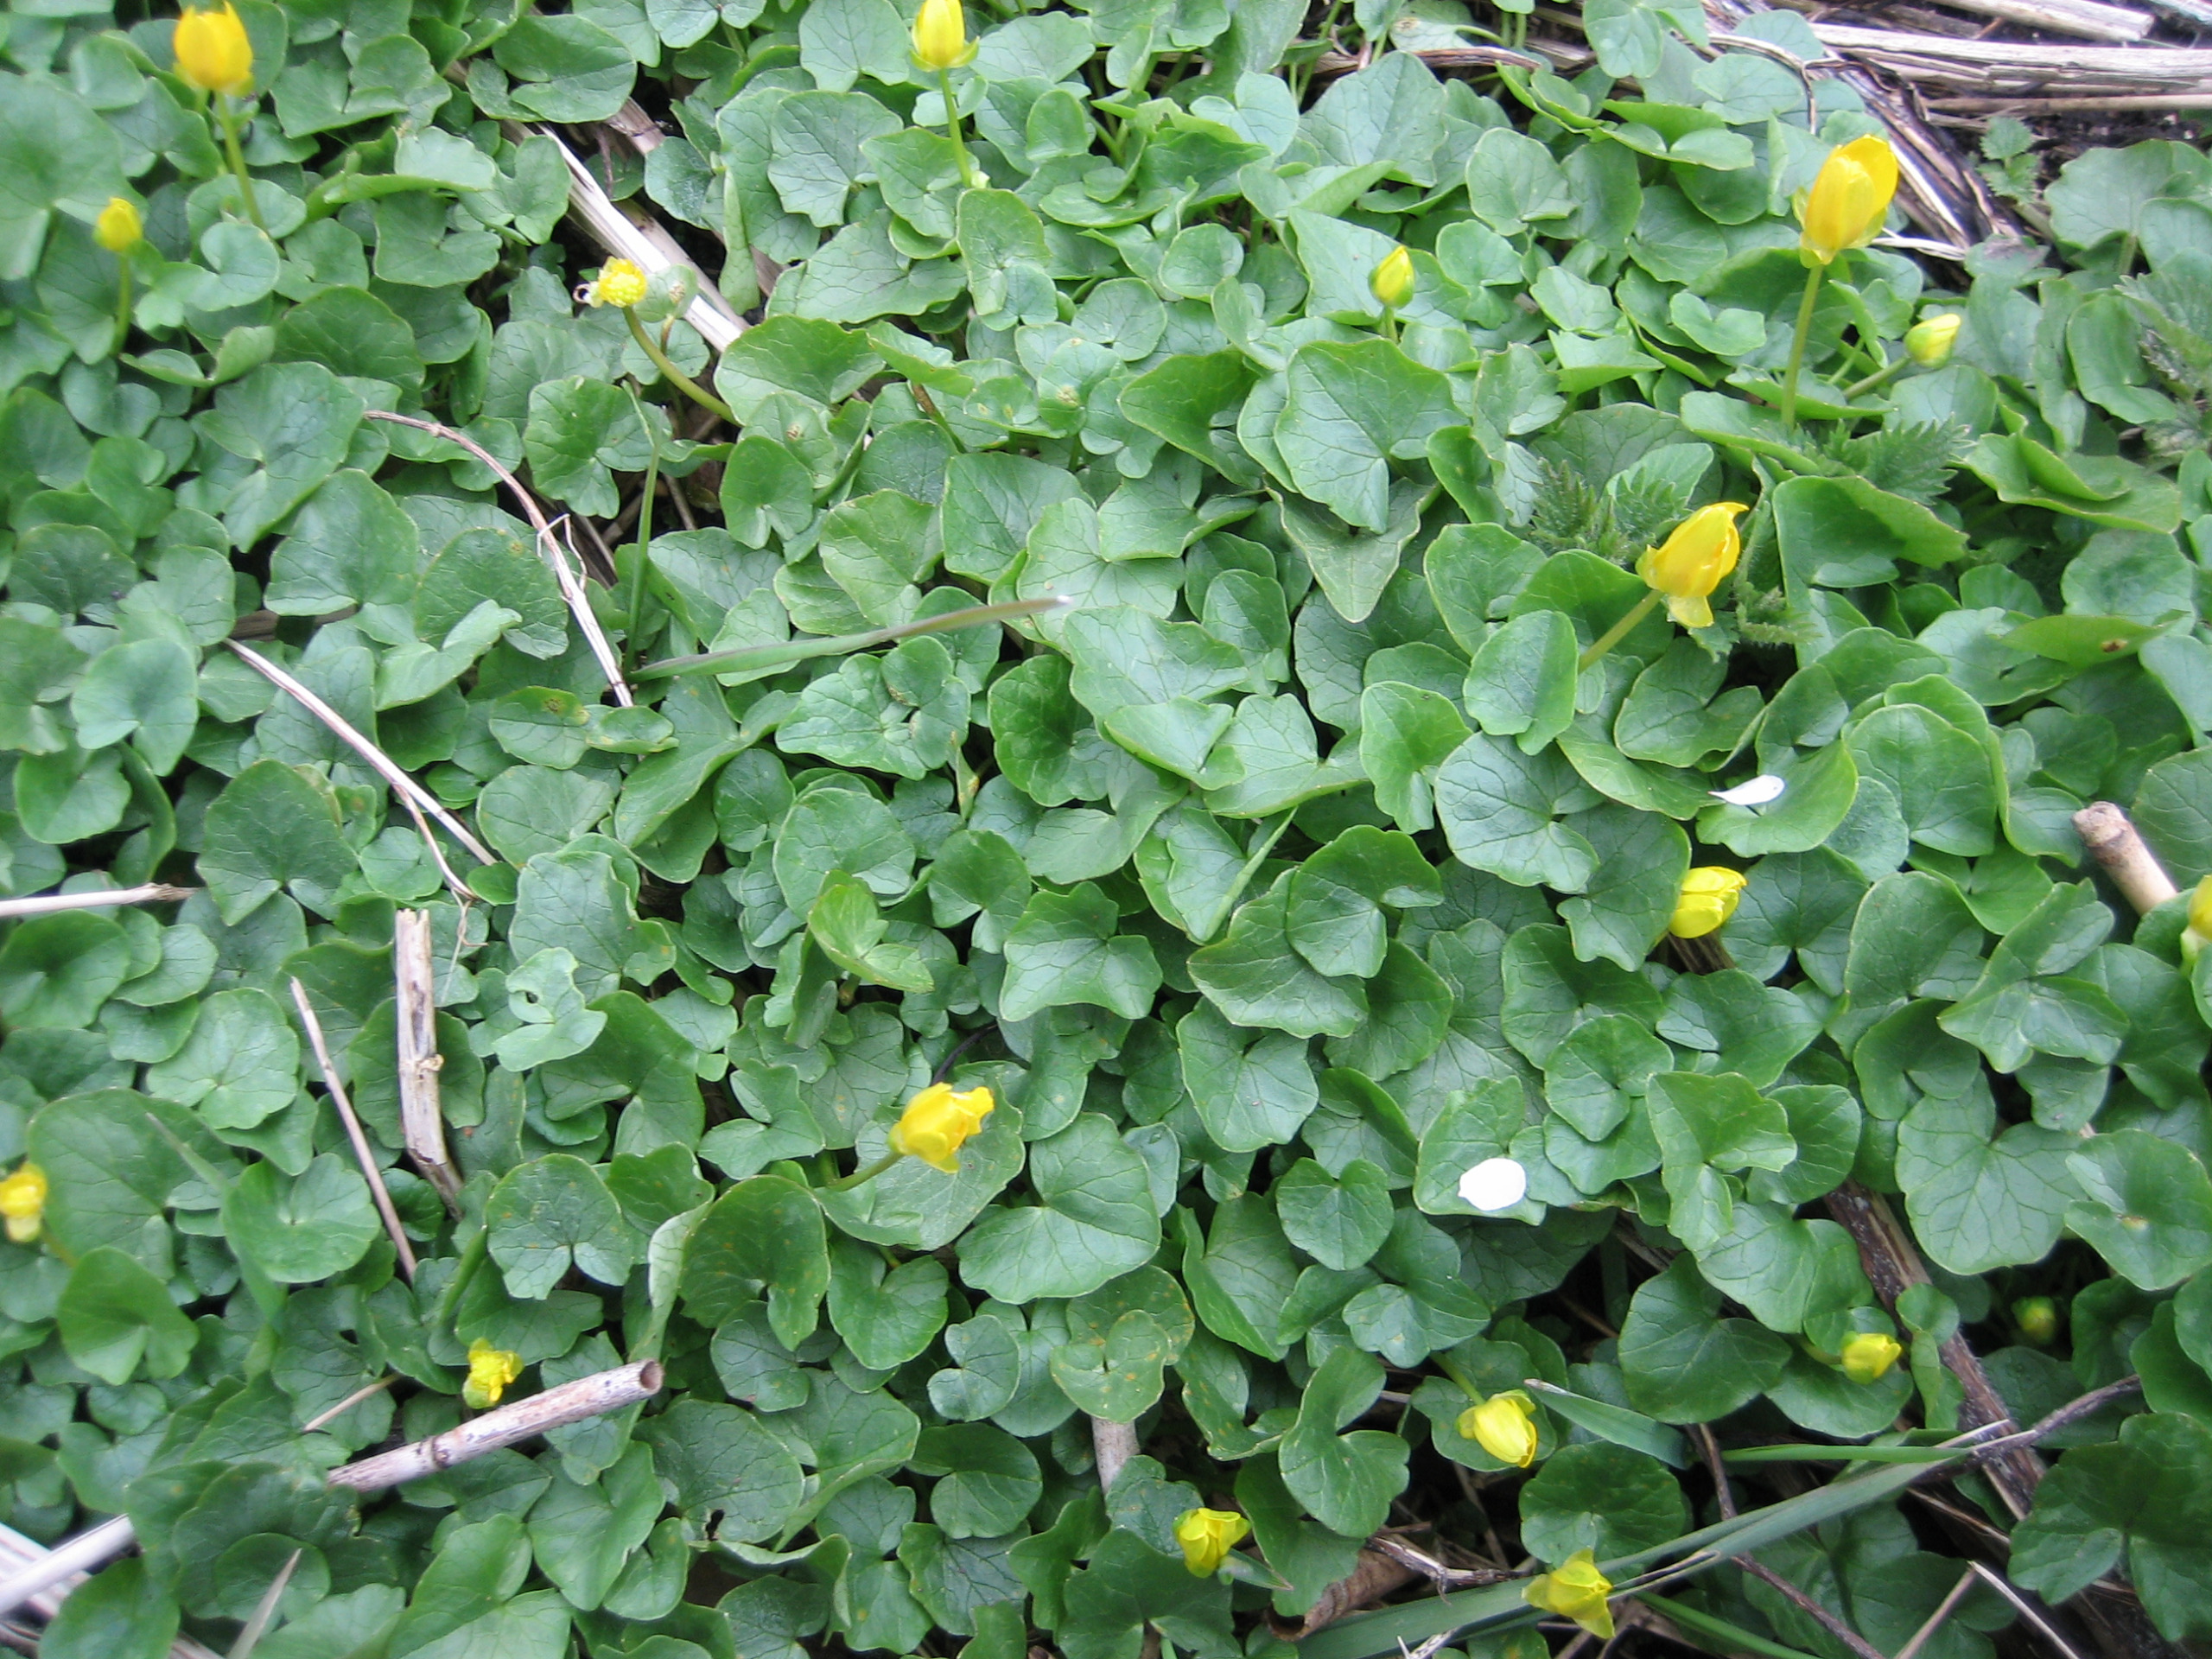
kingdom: Plantae
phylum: Tracheophyta
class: Magnoliopsida
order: Ranunculales
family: Ranunculaceae
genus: Ficaria
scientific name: Ficaria verna
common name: Vorterod
